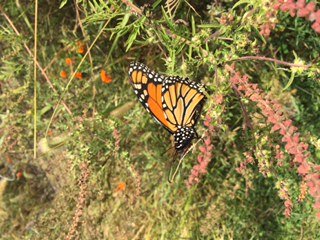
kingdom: Animalia
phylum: Arthropoda
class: Insecta
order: Lepidoptera
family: Nymphalidae
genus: Danaus
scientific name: Danaus plexippus
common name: Monarch
